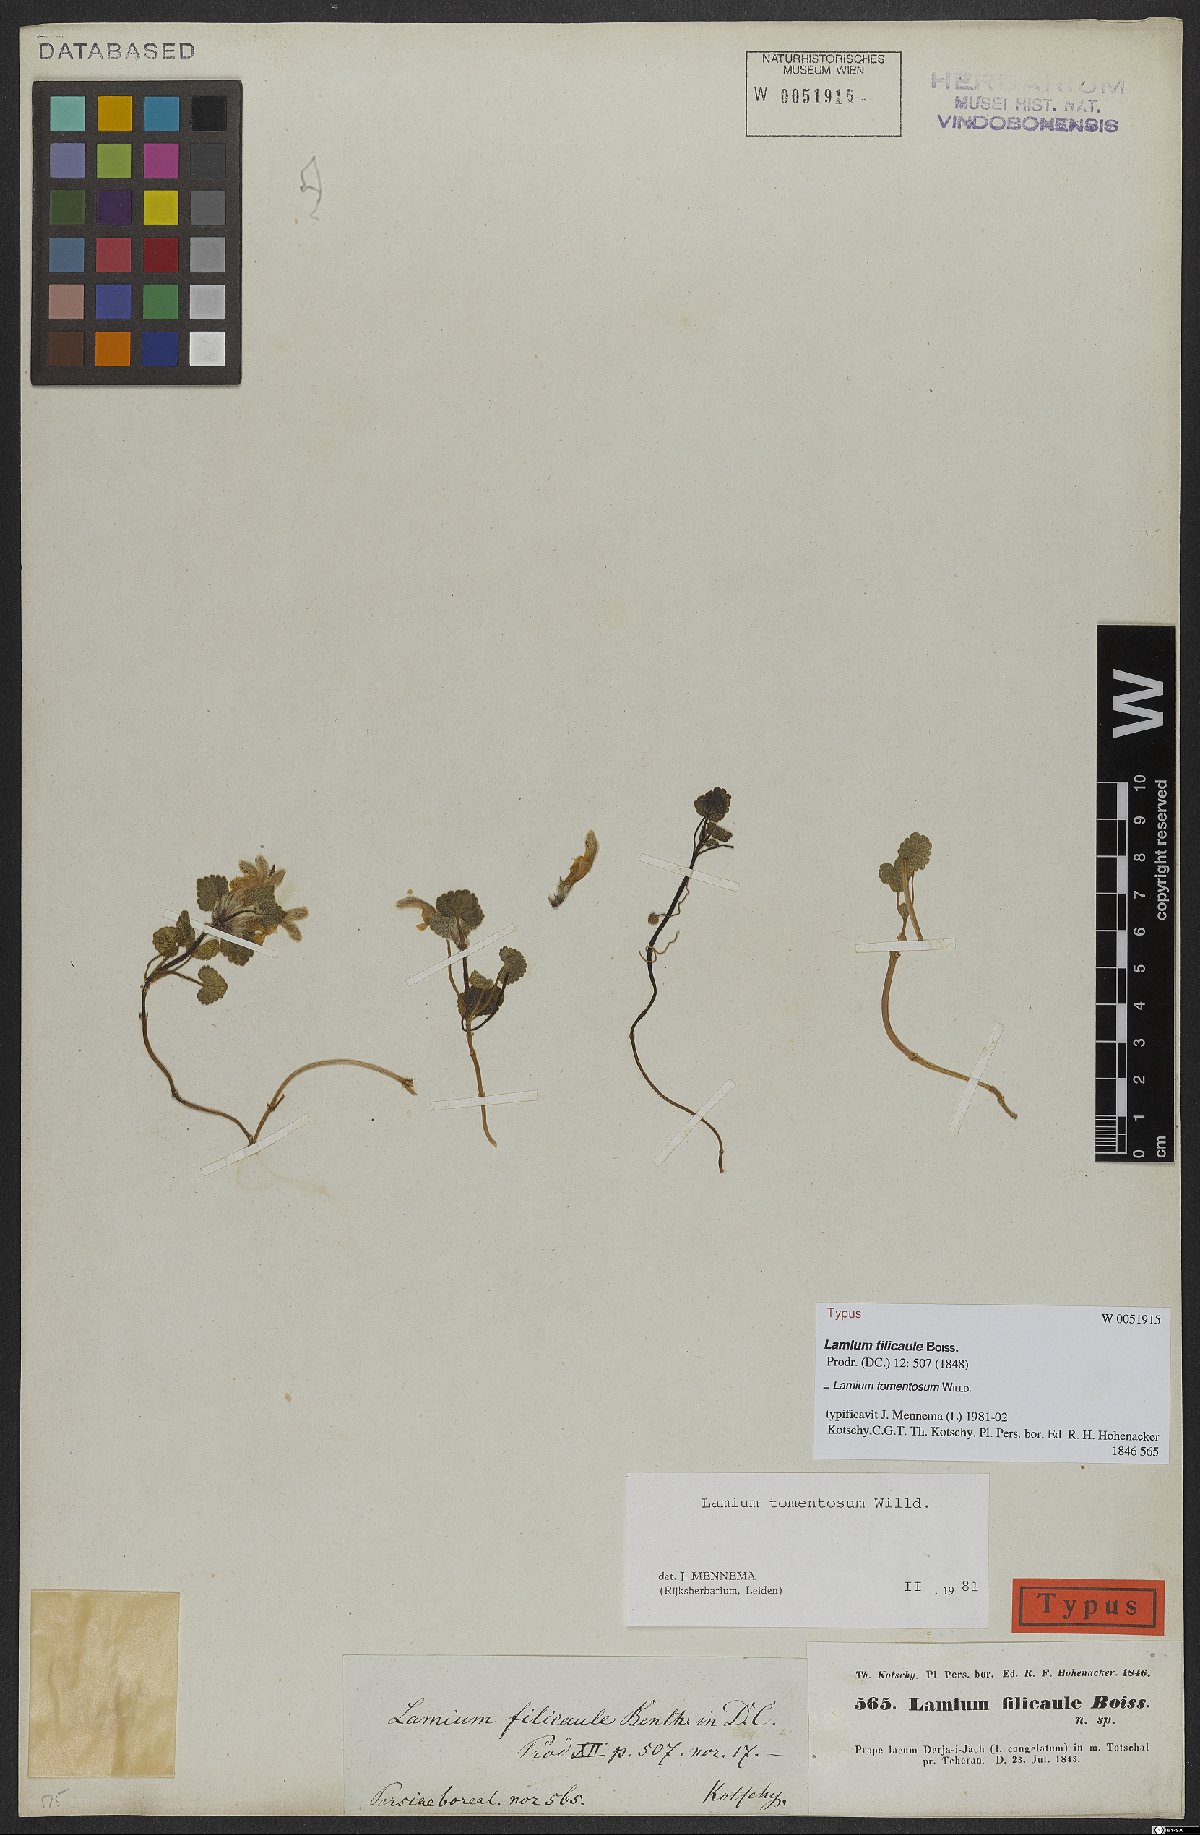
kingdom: Plantae
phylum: Tracheophyta
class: Magnoliopsida
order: Lamiales
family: Lamiaceae
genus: Lamium
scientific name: Lamium tomentosum
